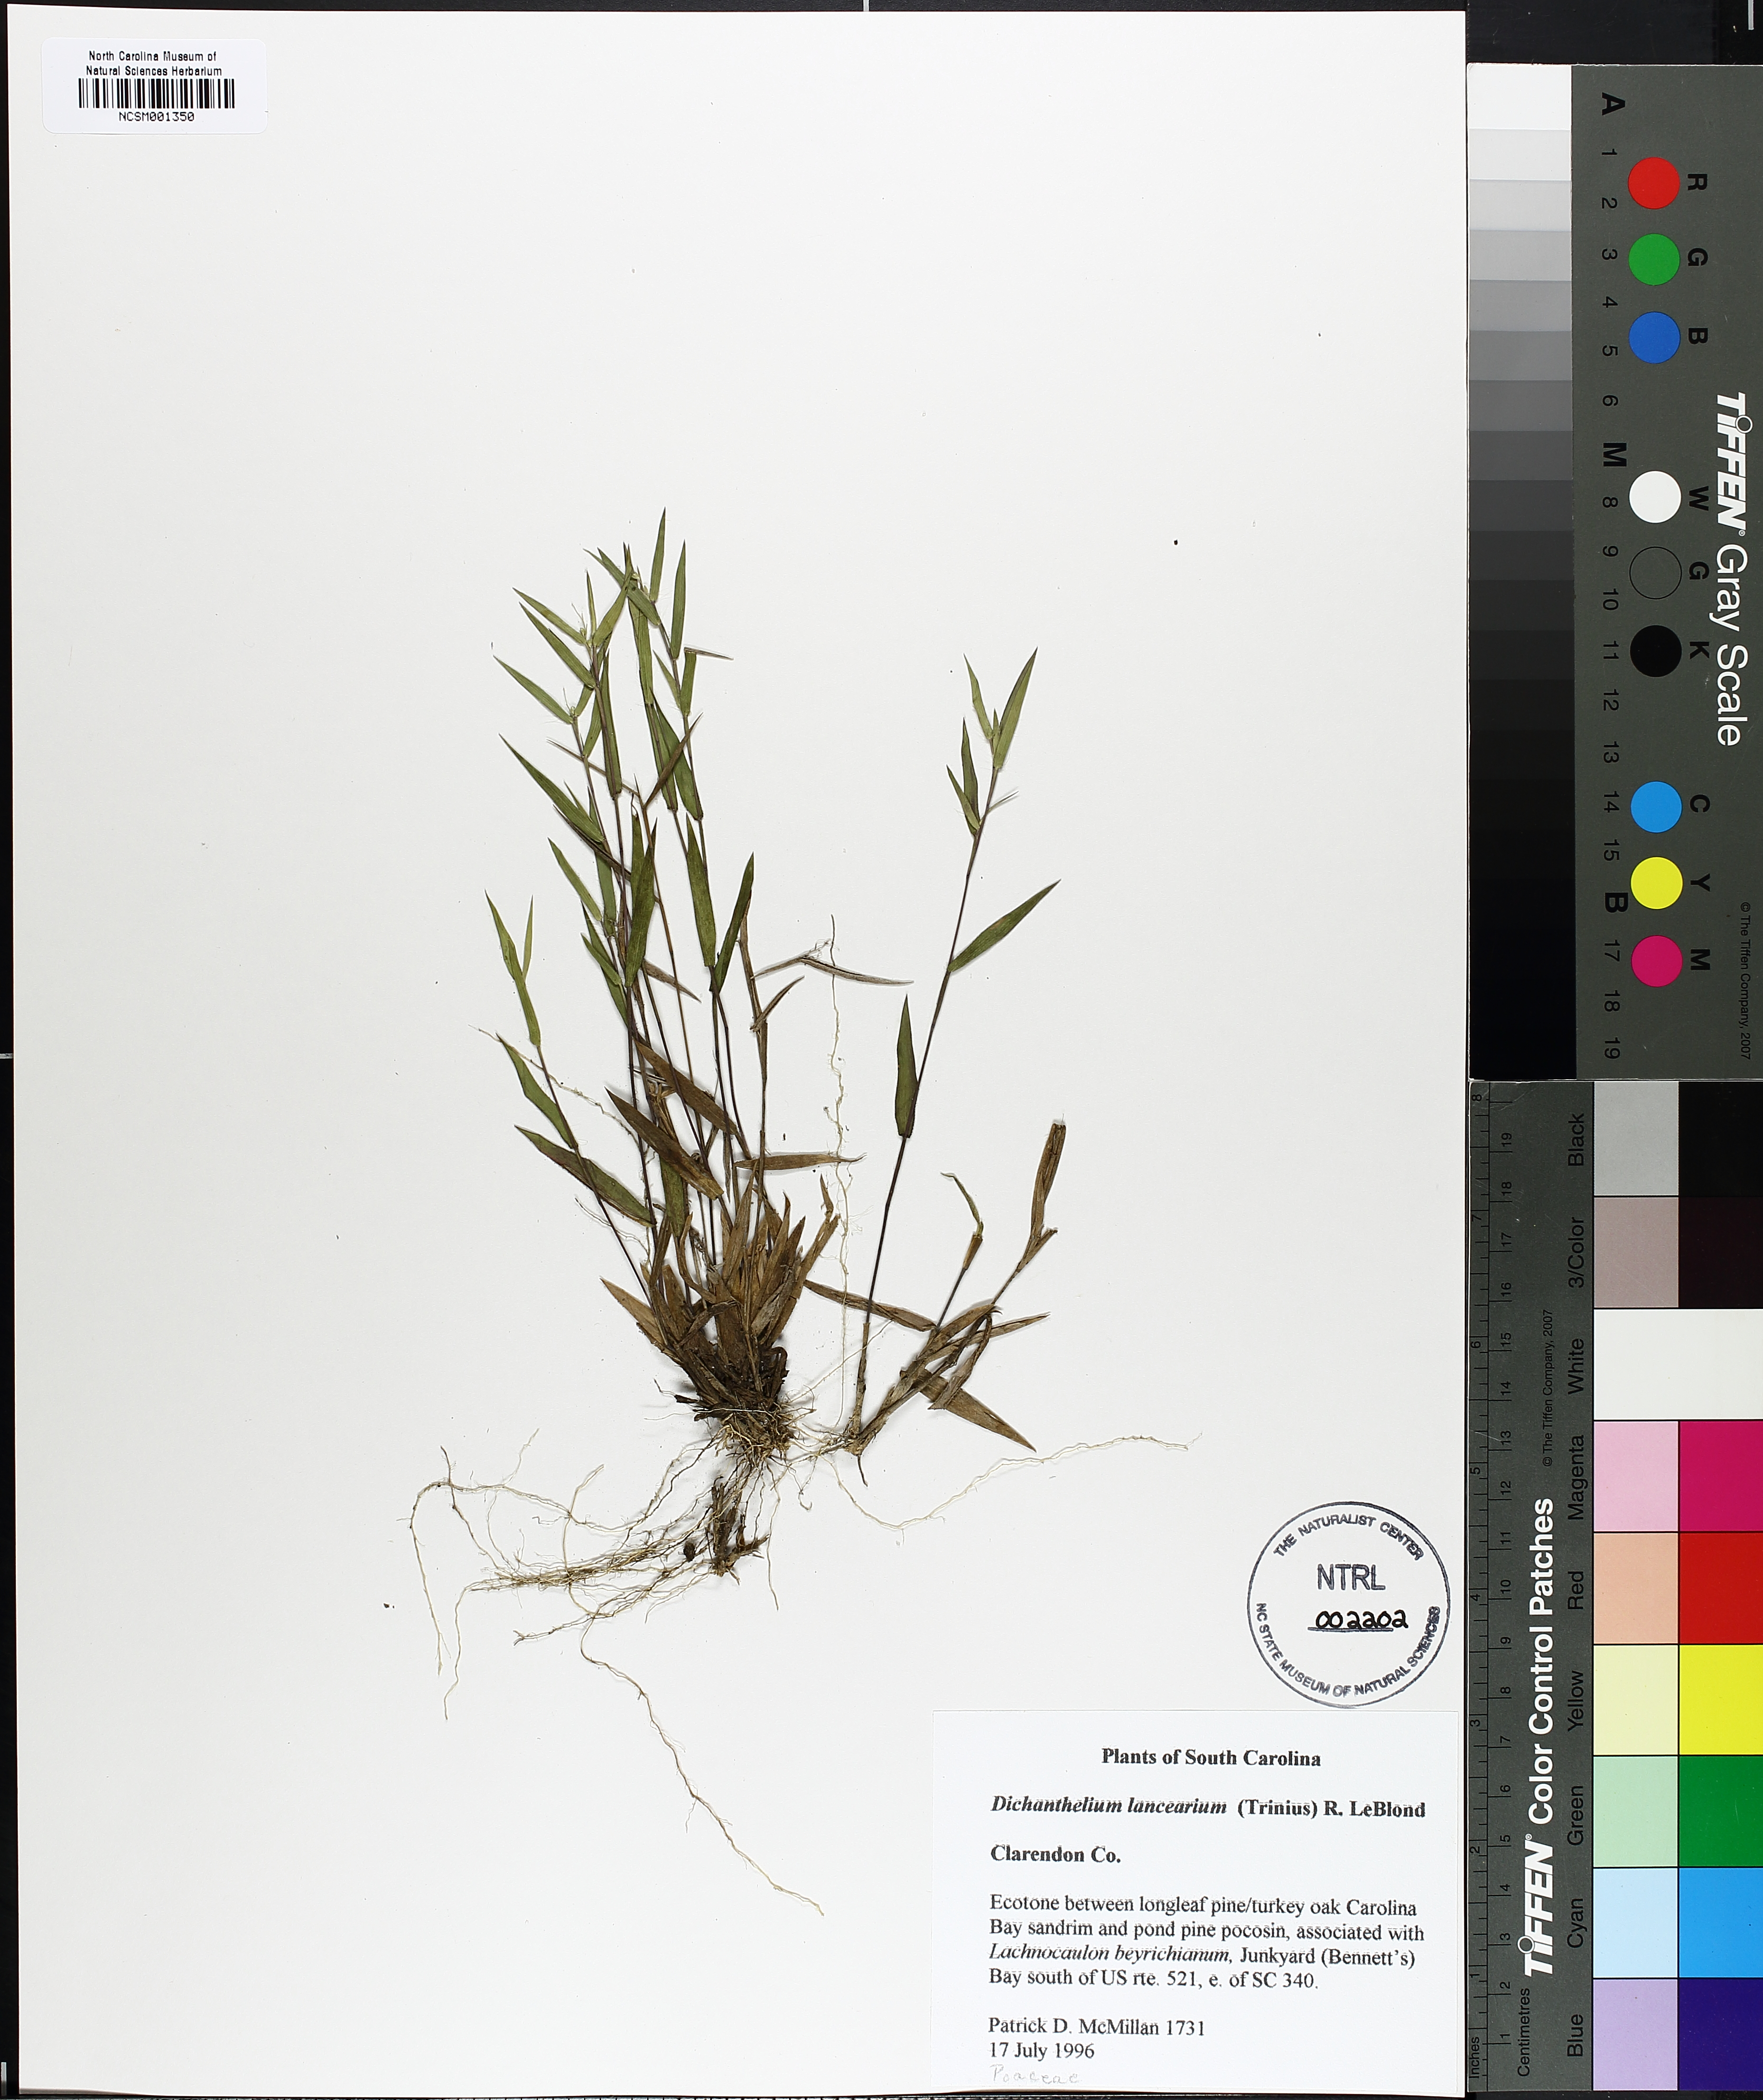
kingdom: Plantae
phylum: Tracheophyta
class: Liliopsida
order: Poales
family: Poaceae
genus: Dichanthelium
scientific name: Dichanthelium portoricense
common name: American panicgrass
